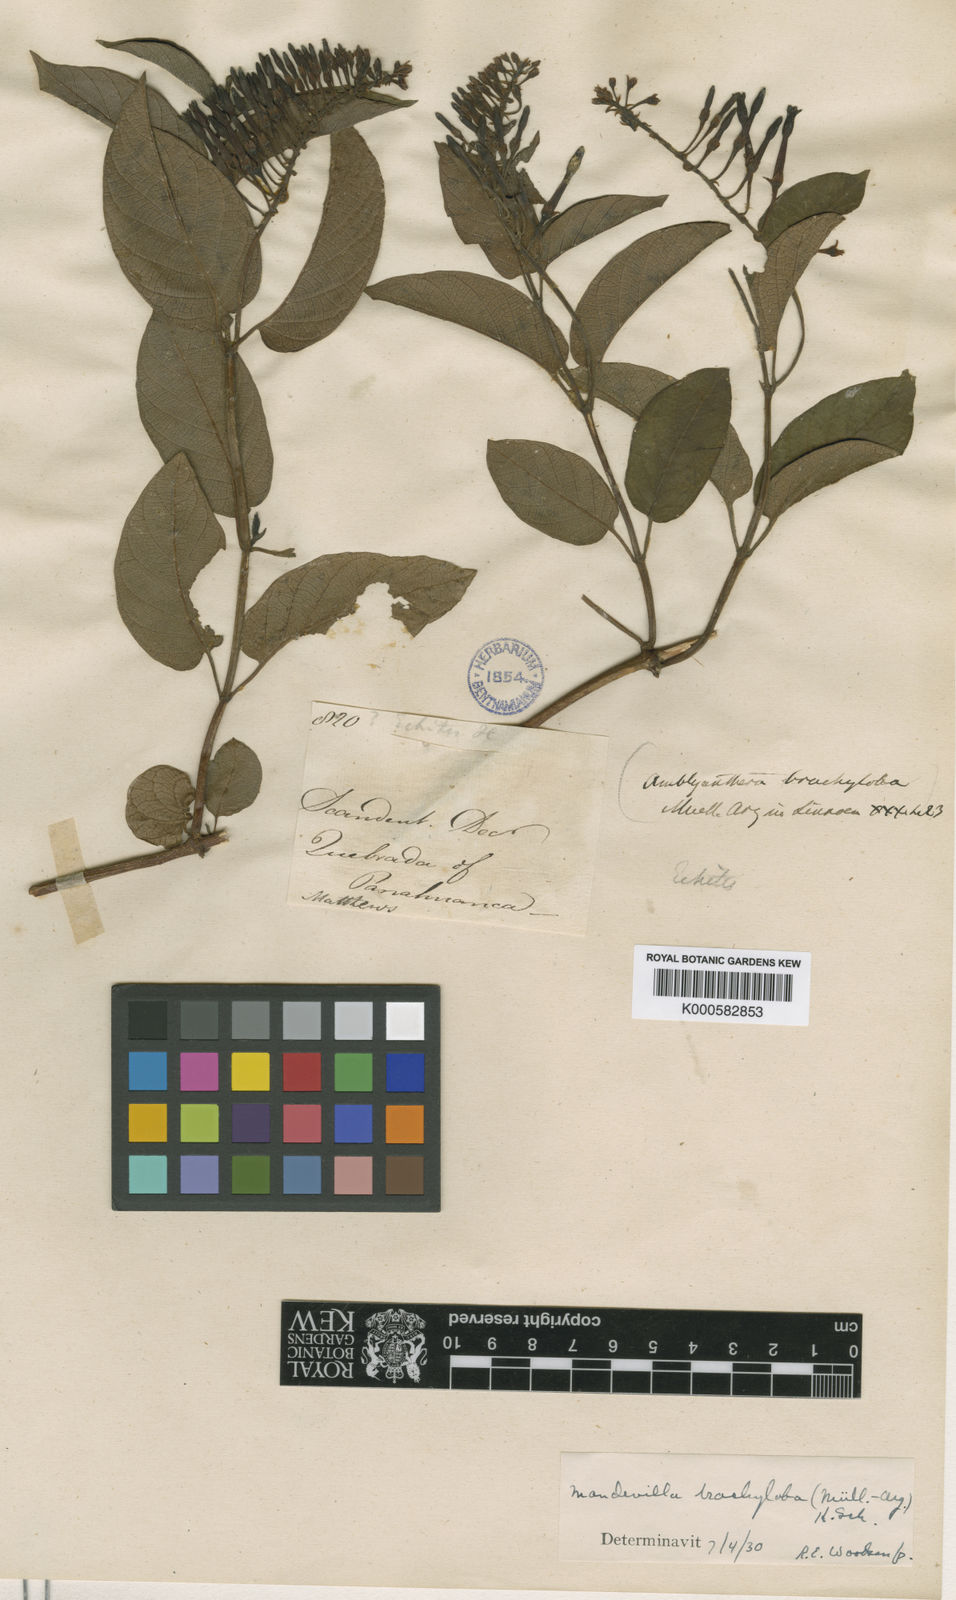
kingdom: Plantae
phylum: Tracheophyta
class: Magnoliopsida
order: Gentianales
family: Apocynaceae
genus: Mandevilla
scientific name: Mandevilla
